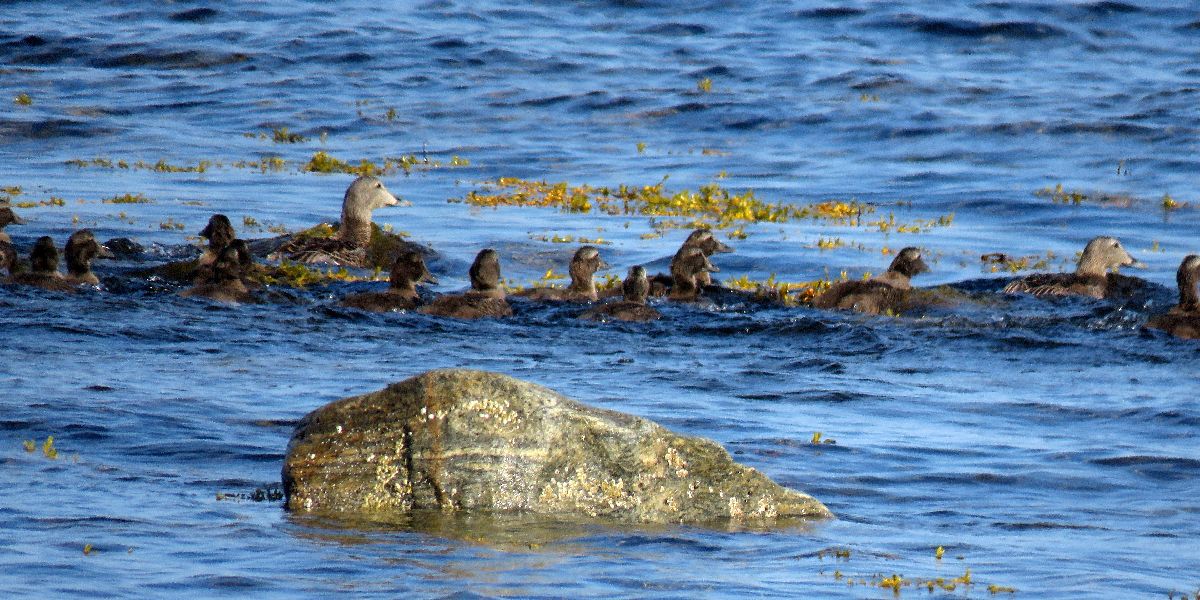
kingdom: Animalia
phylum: Chordata
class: Aves
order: Anseriformes
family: Anatidae
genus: Somateria
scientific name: Somateria mollissima
